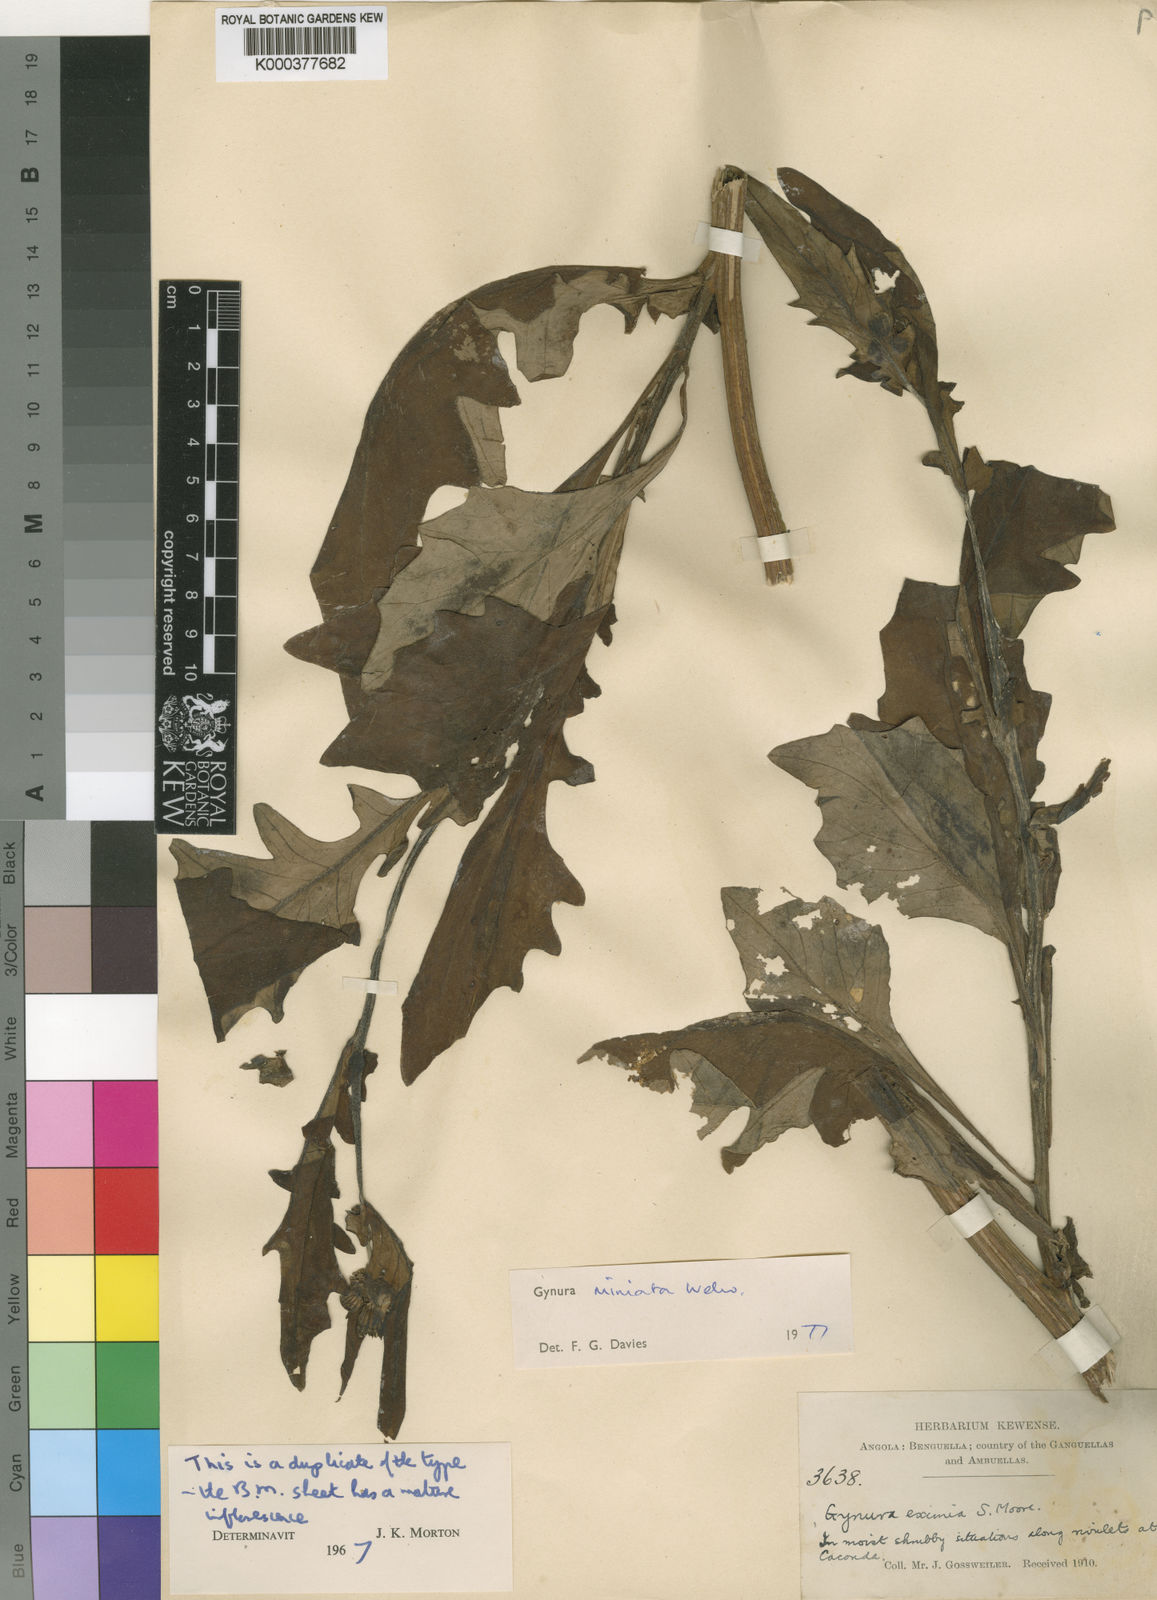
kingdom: Plantae
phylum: Tracheophyta
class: Magnoliopsida
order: Asterales
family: Asteraceae
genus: Gynura
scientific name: Gynura pseudochina
